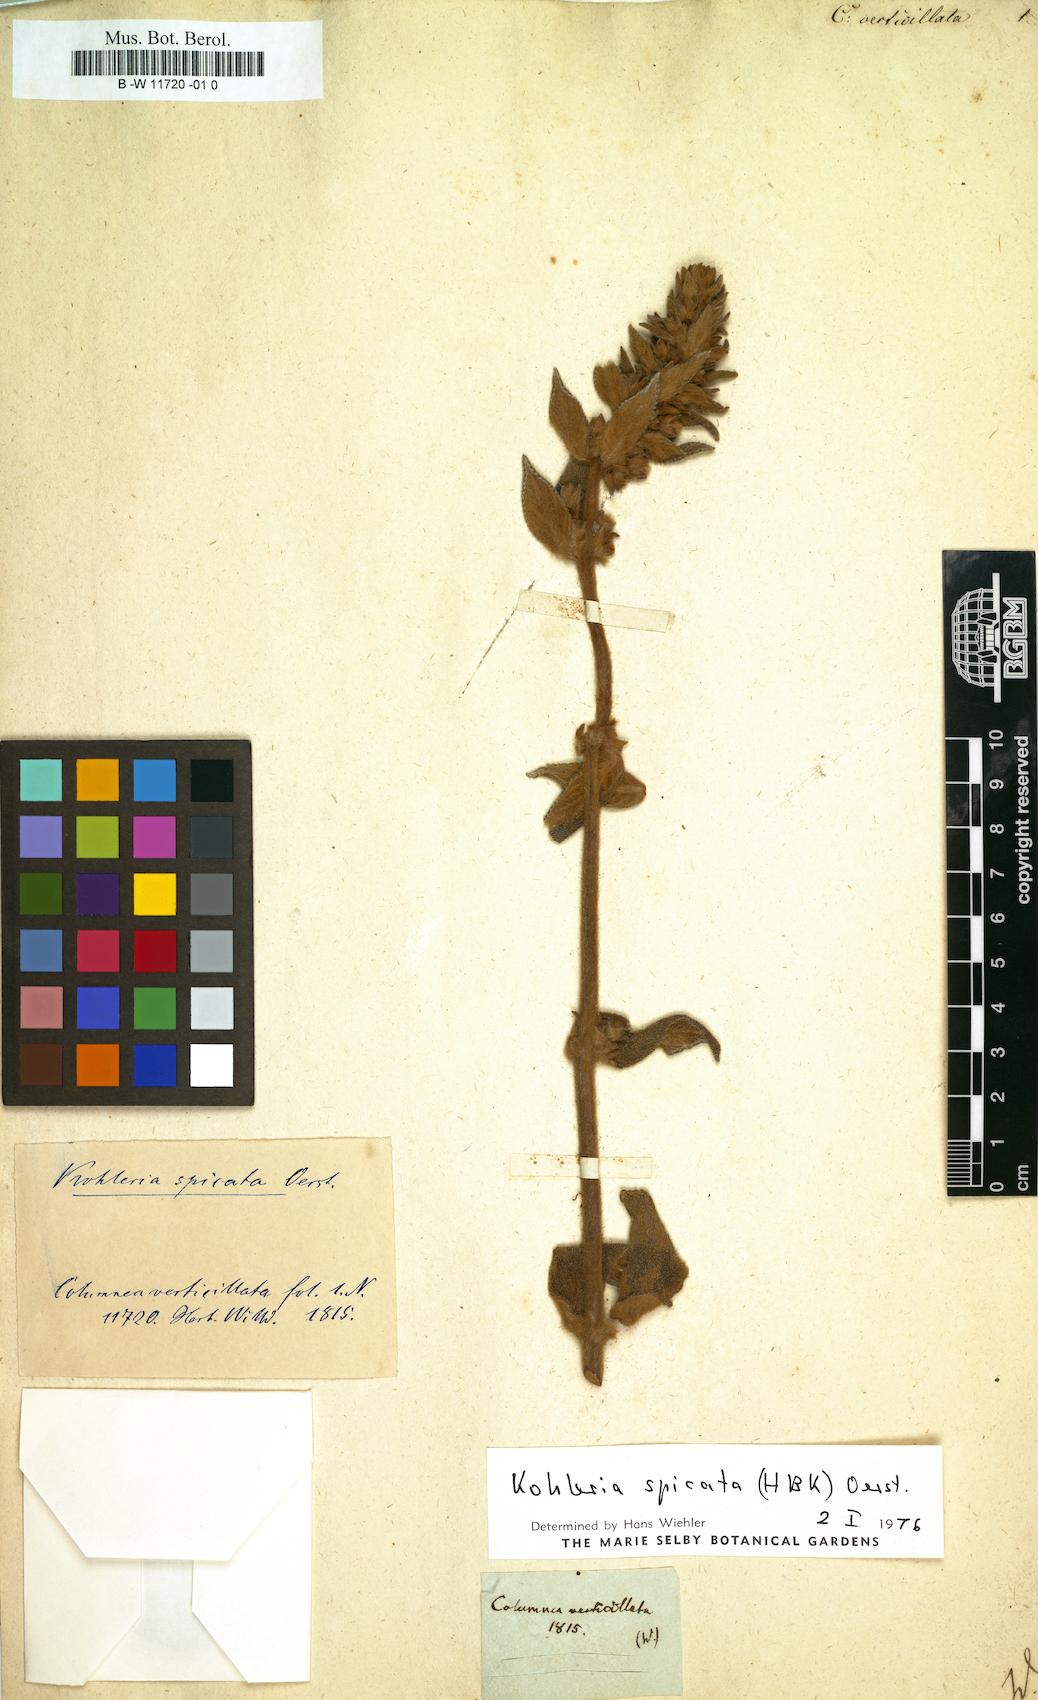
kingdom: Plantae
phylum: Tracheophyta
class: Magnoliopsida
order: Lamiales
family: Gesneriaceae
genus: Columnea
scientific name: Columnea
